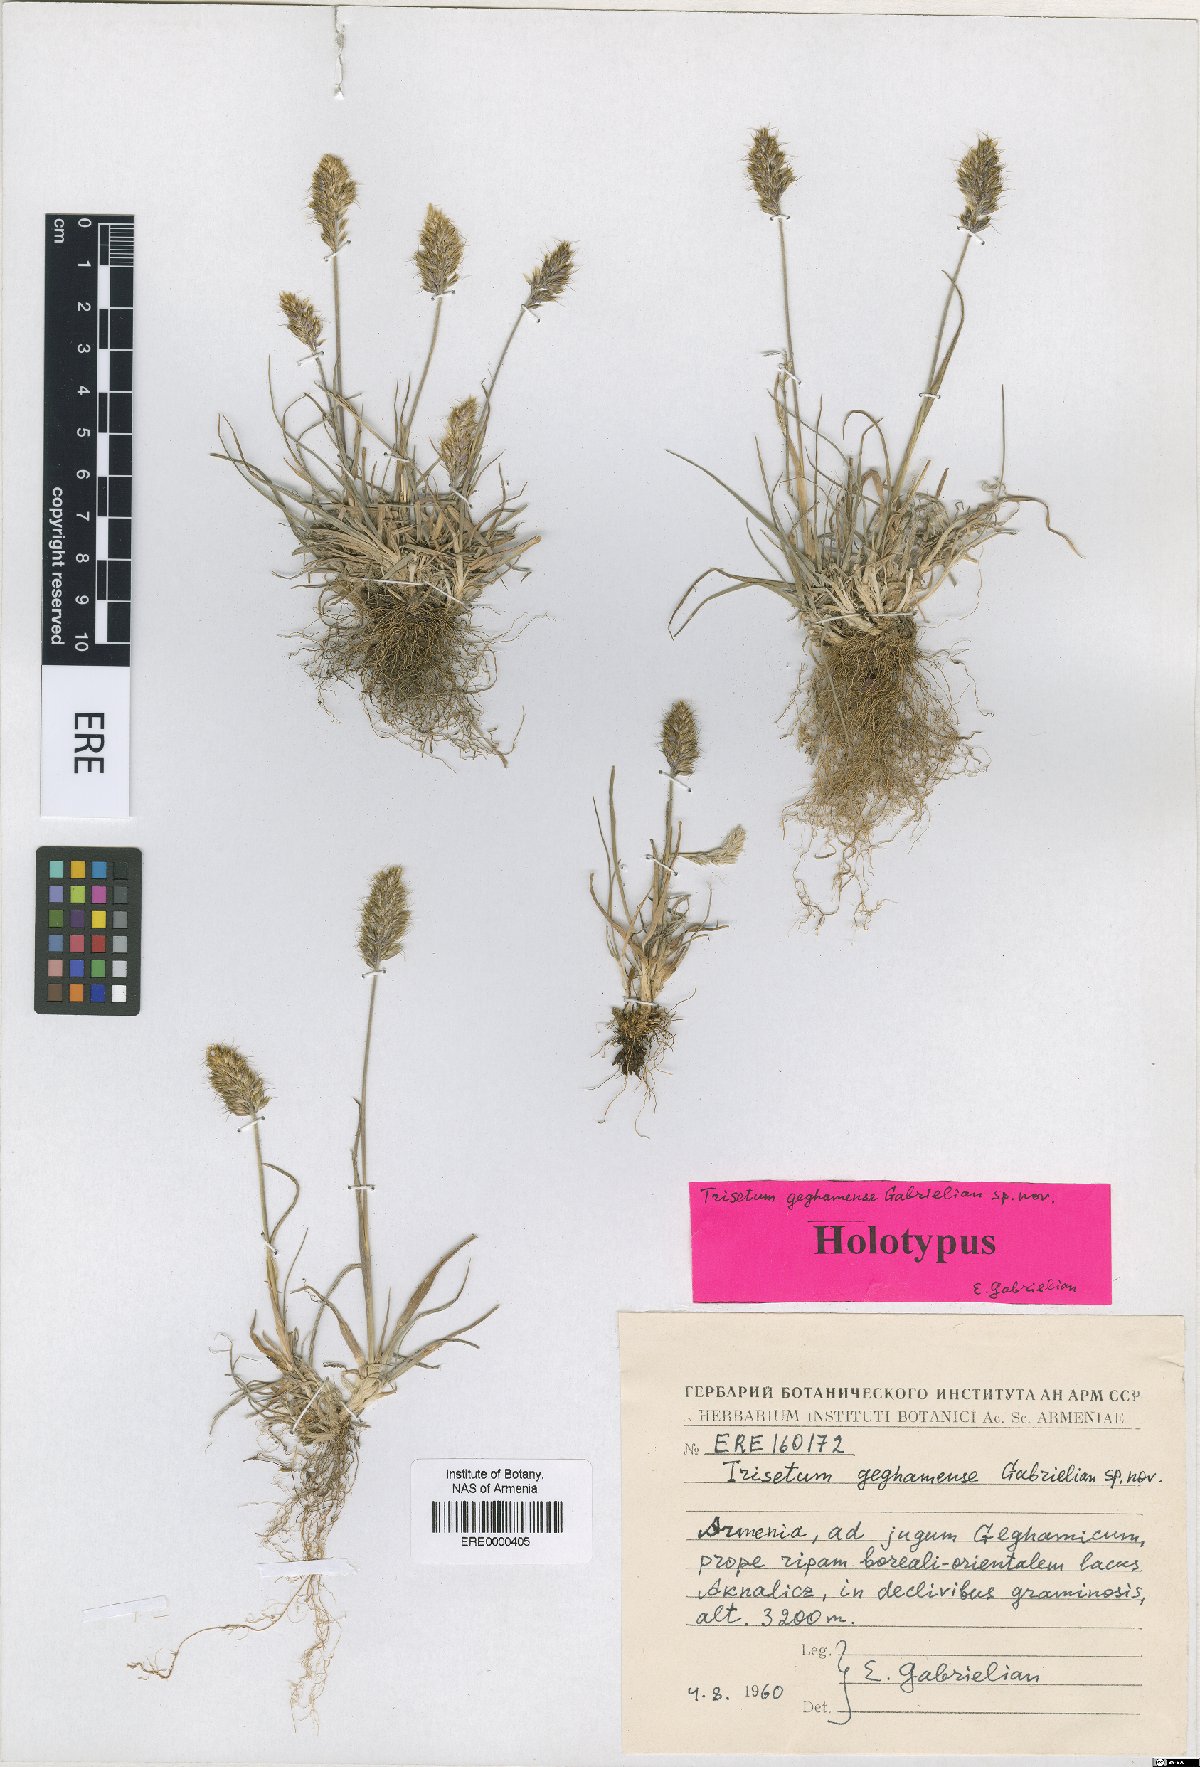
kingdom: Plantae
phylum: Tracheophyta
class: Liliopsida
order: Poales
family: Poaceae
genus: Koeleria
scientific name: Koeleria spicata
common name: Mountain trisetum
